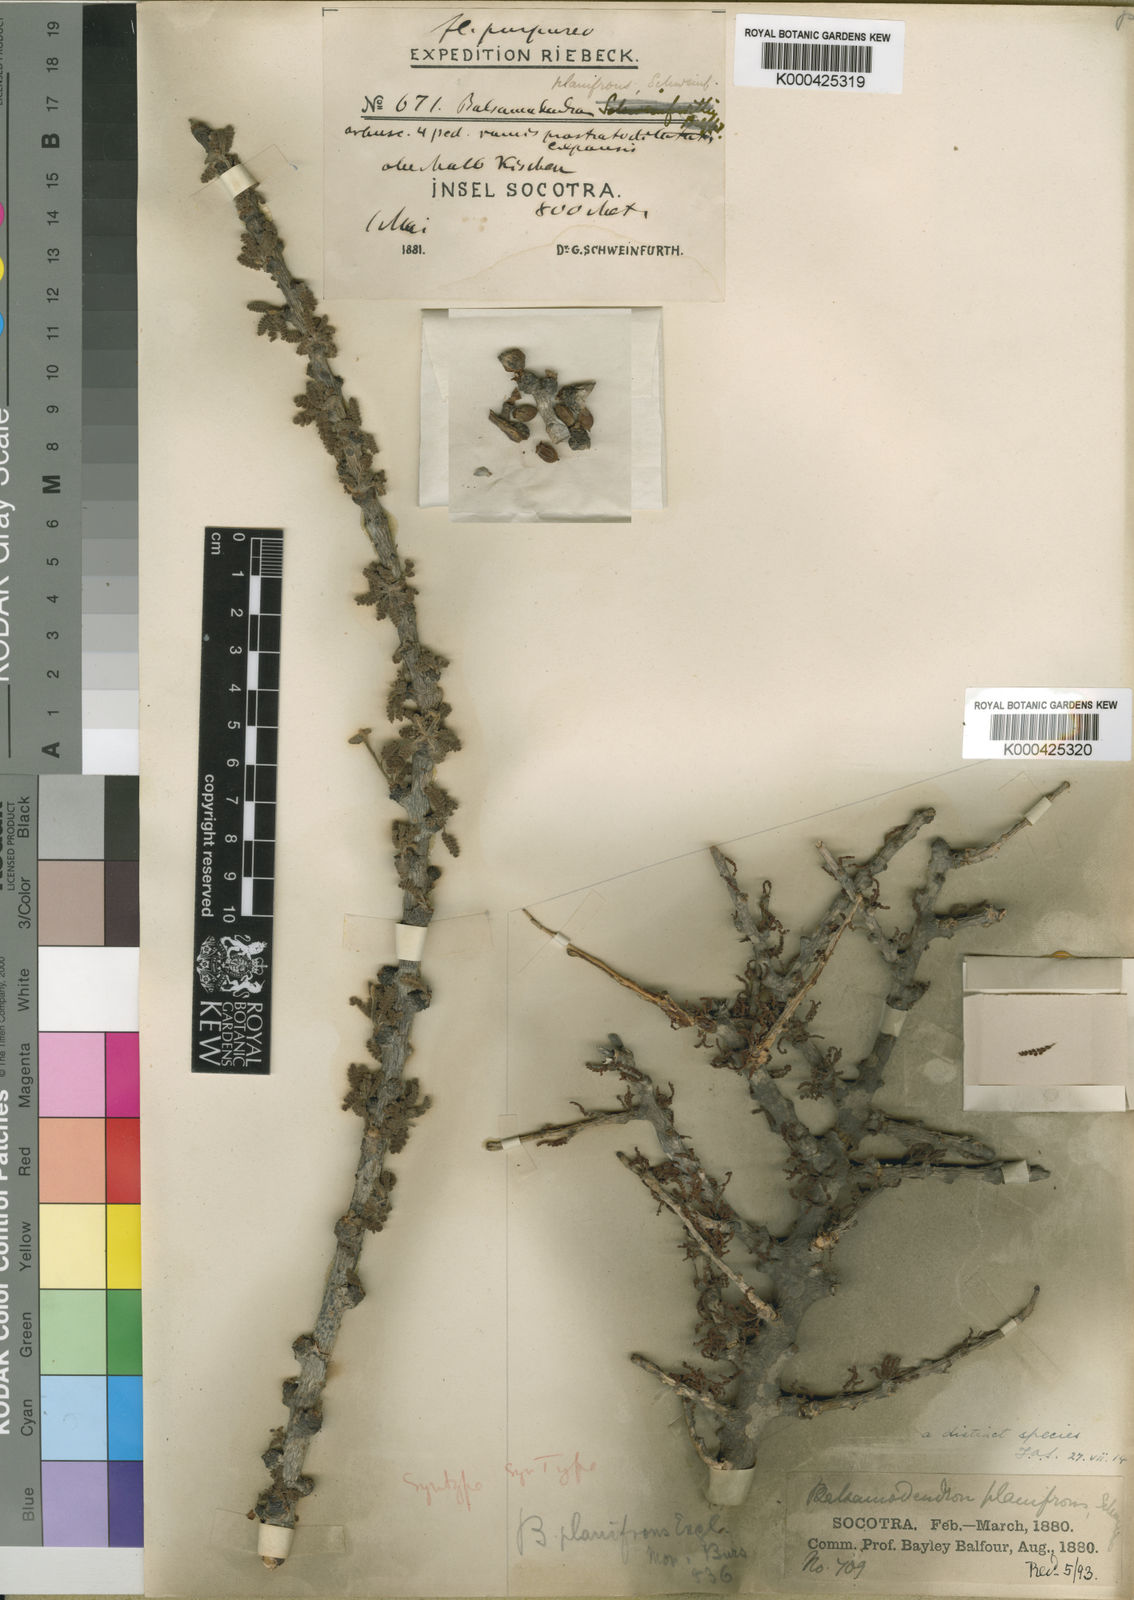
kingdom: Plantae
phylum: Tracheophyta
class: Magnoliopsida
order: Sapindales
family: Burseraceae
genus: Commiphora
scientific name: Commiphora planifrons
